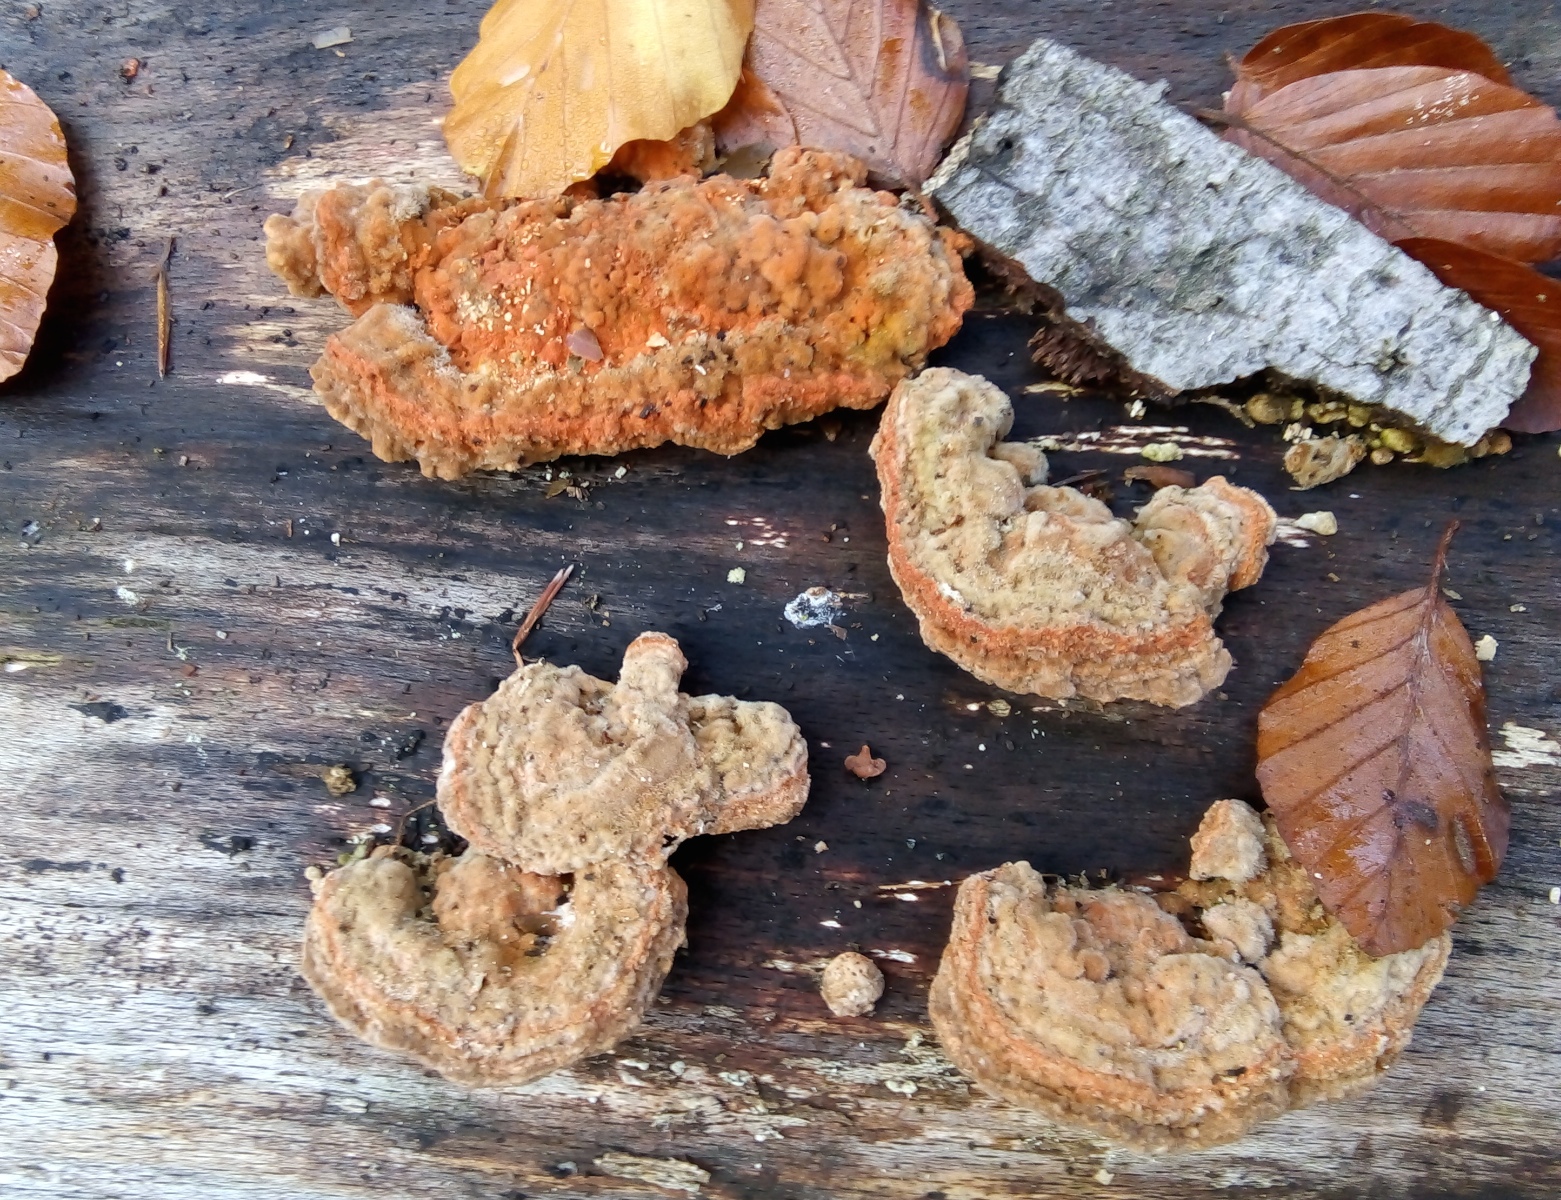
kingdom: Fungi
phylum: Basidiomycota
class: Agaricomycetes
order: Polyporales
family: Polyporaceae
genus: Lenzites
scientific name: Lenzites betulinus
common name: birke-læderporesvamp
